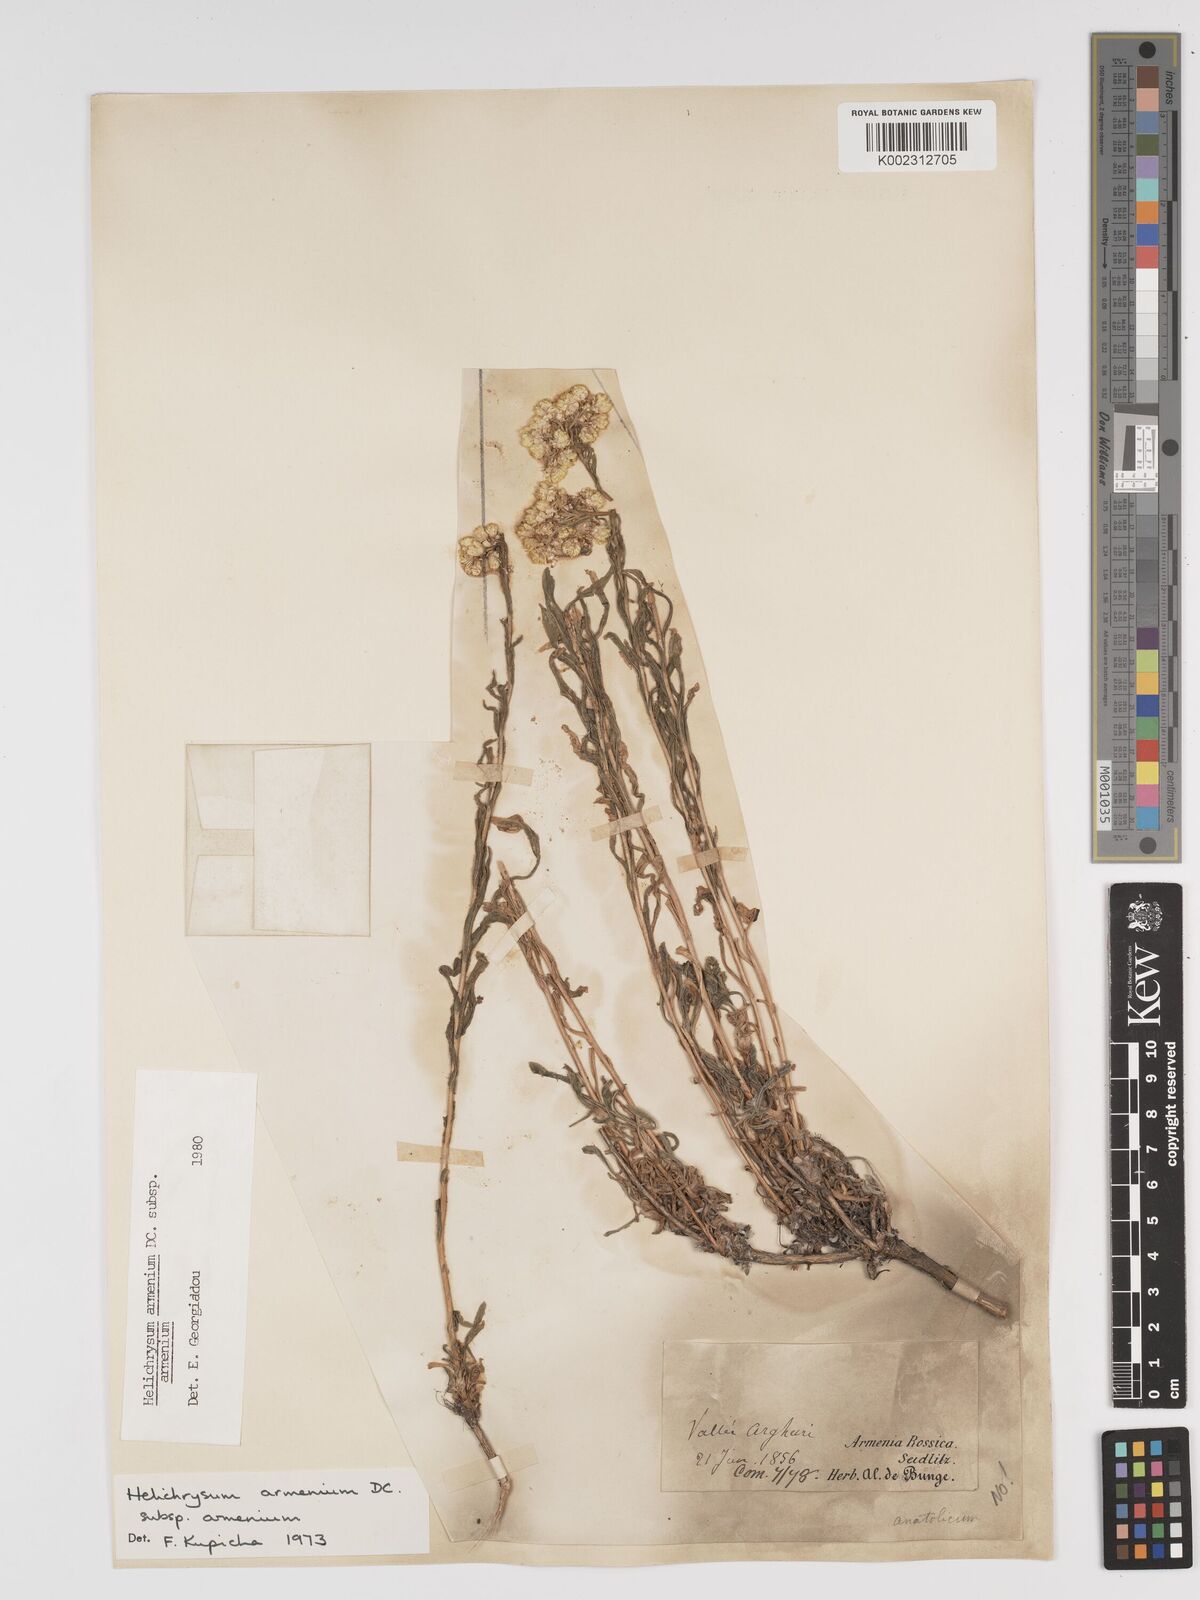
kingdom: Plantae
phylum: Tracheophyta
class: Magnoliopsida
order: Asterales
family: Asteraceae
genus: Helichrysum
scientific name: Helichrysum armenium
